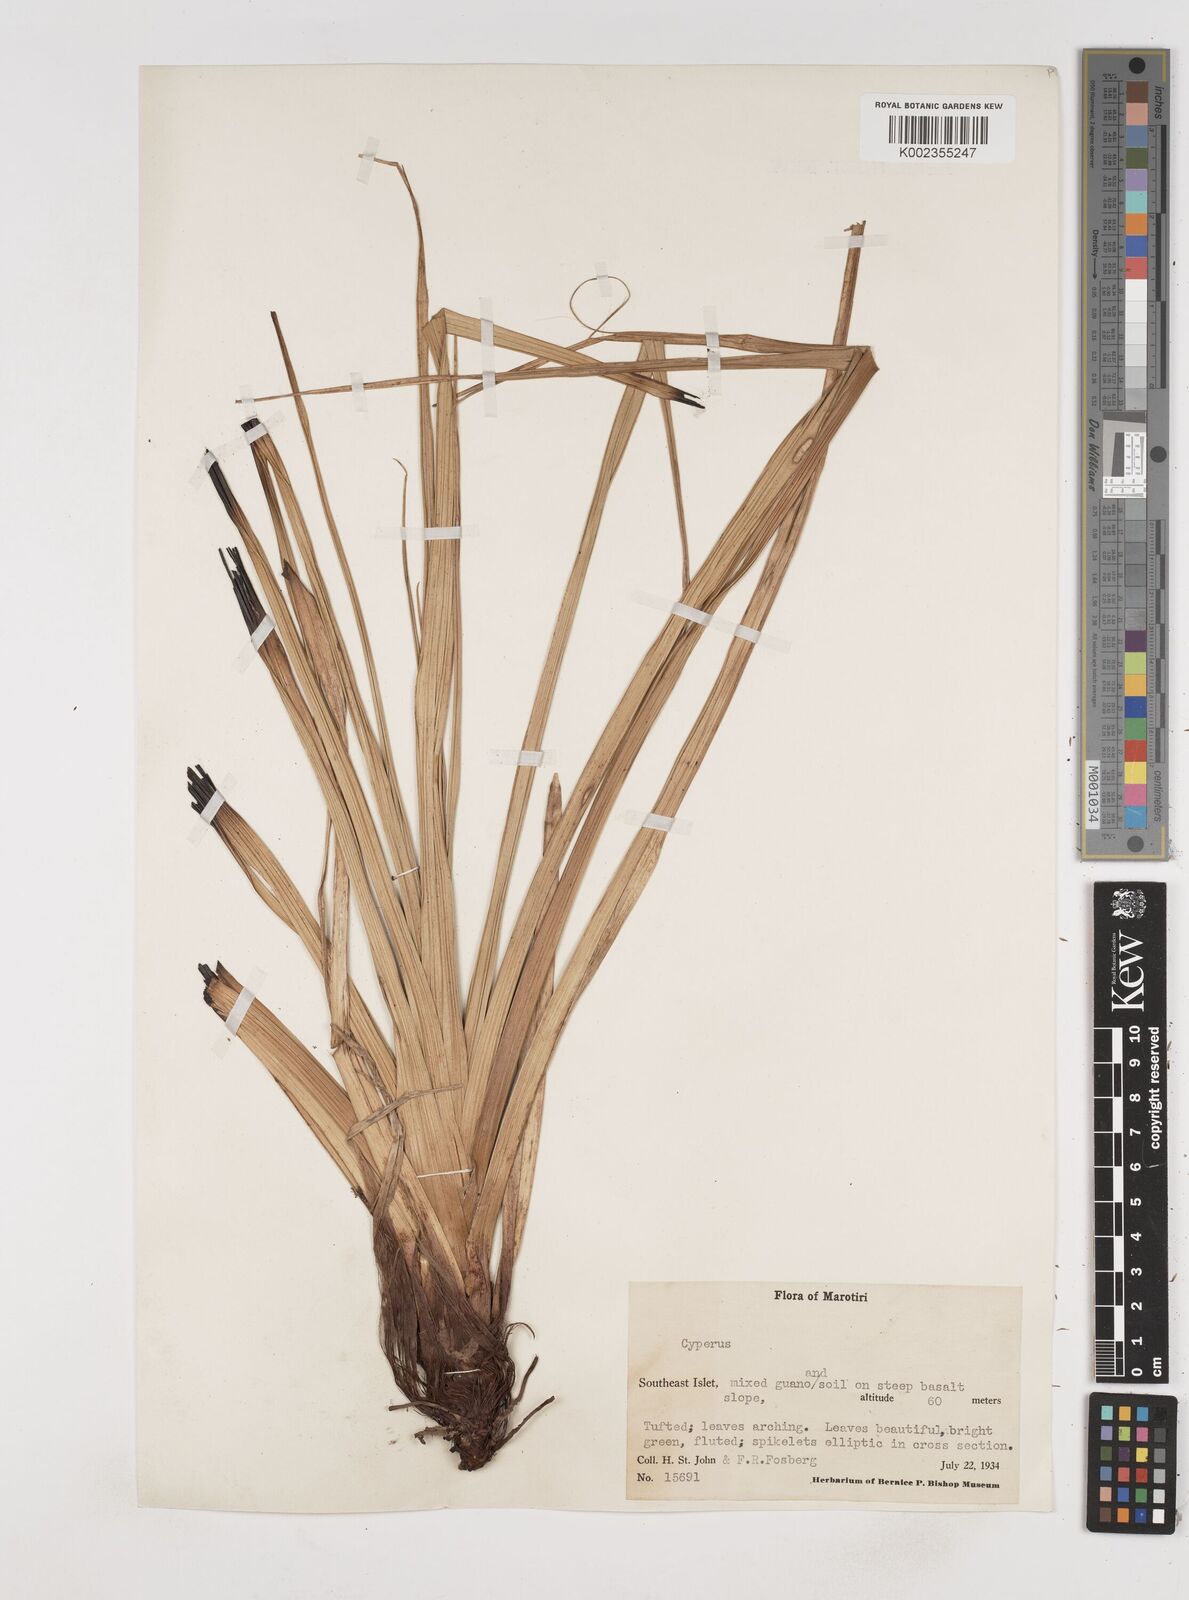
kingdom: Plantae
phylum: Tracheophyta
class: Liliopsida
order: Poales
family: Cyperaceae
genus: Cyperus
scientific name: Cyperus
